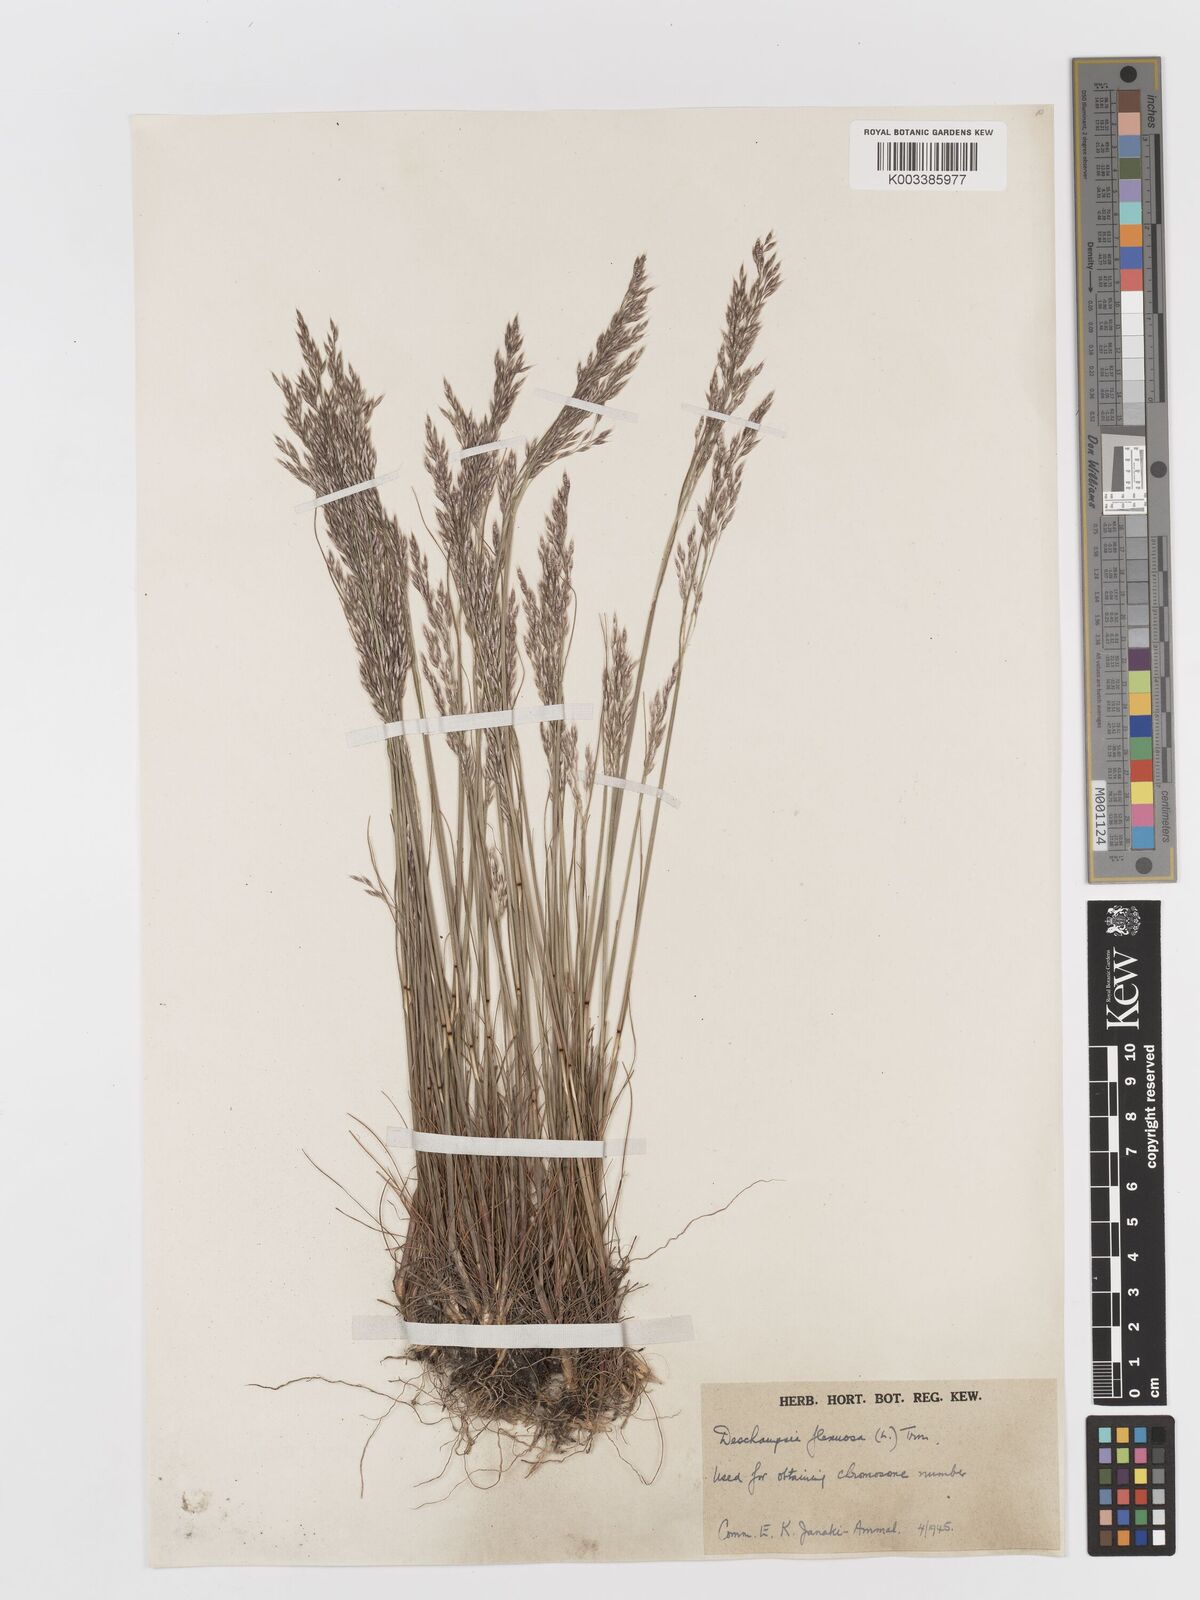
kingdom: Plantae
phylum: Tracheophyta
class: Liliopsida
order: Poales
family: Poaceae
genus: Avenella
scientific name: Avenella flexuosa
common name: Wavy hairgrass
